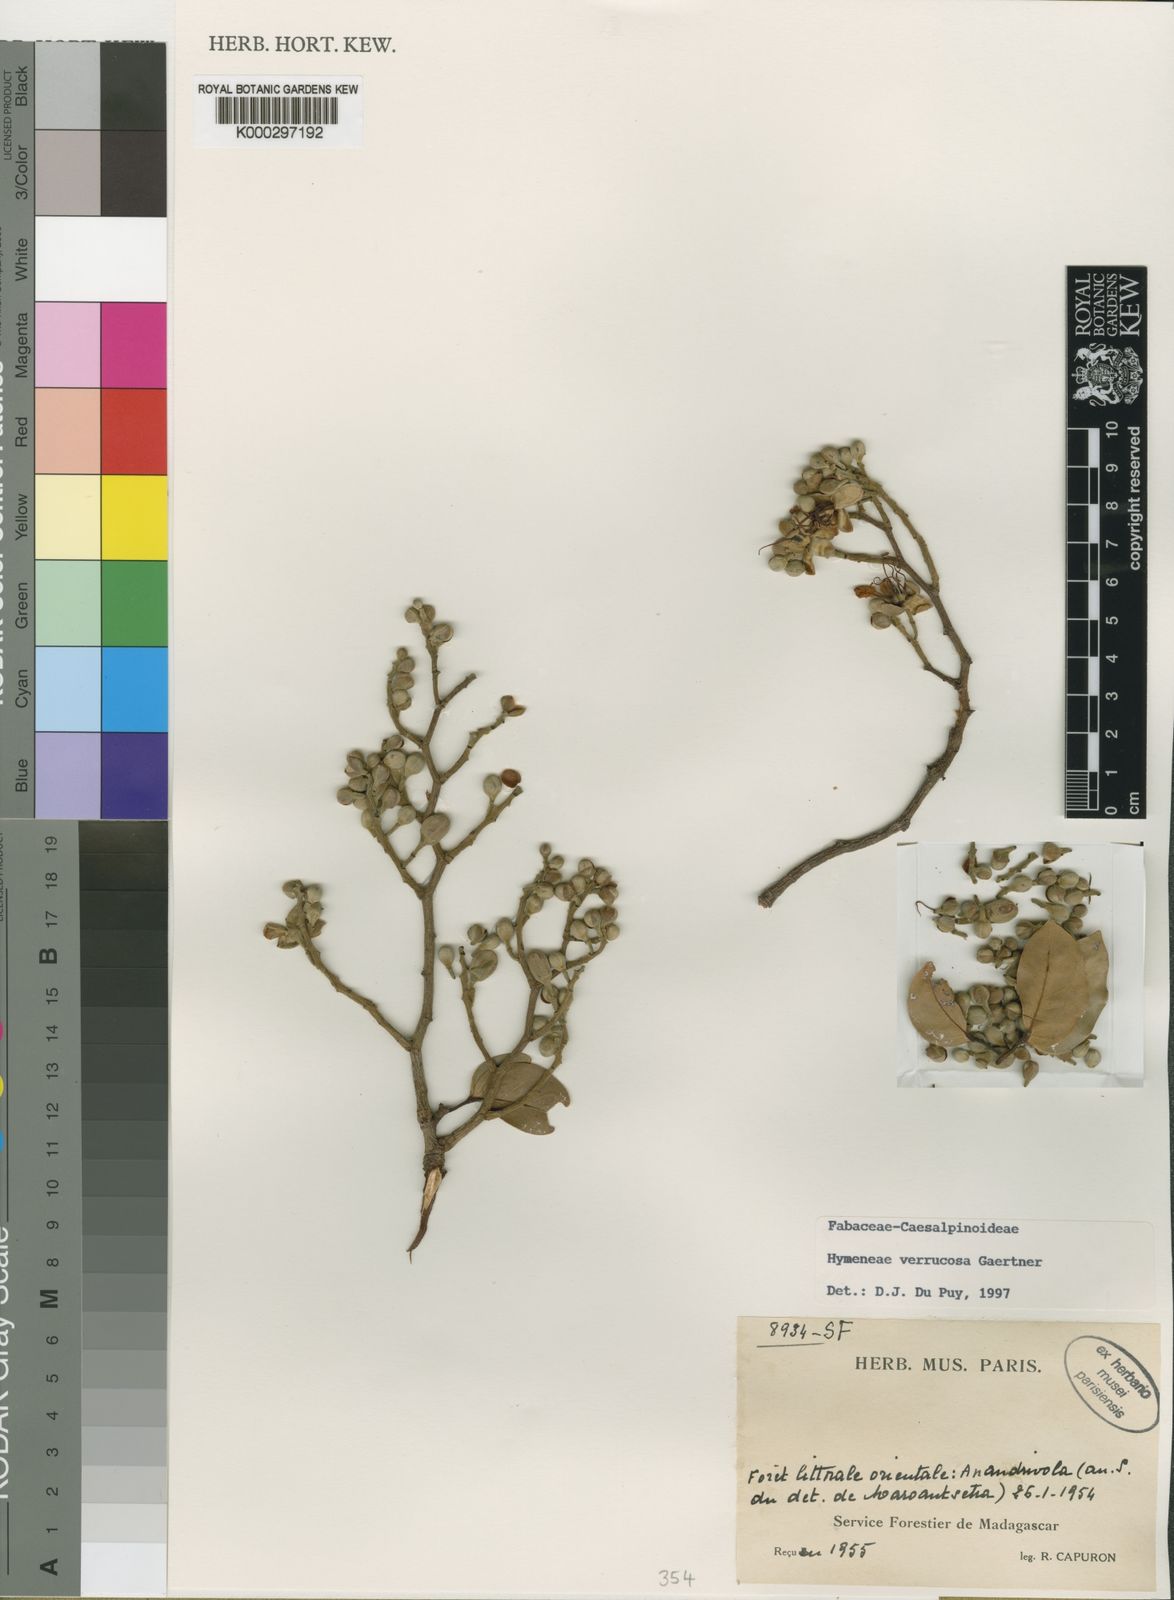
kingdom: Plantae
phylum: Tracheophyta
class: Magnoliopsida
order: Fabales
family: Fabaceae
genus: Hymenaea
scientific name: Hymenaea verrucosa
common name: East african copal
